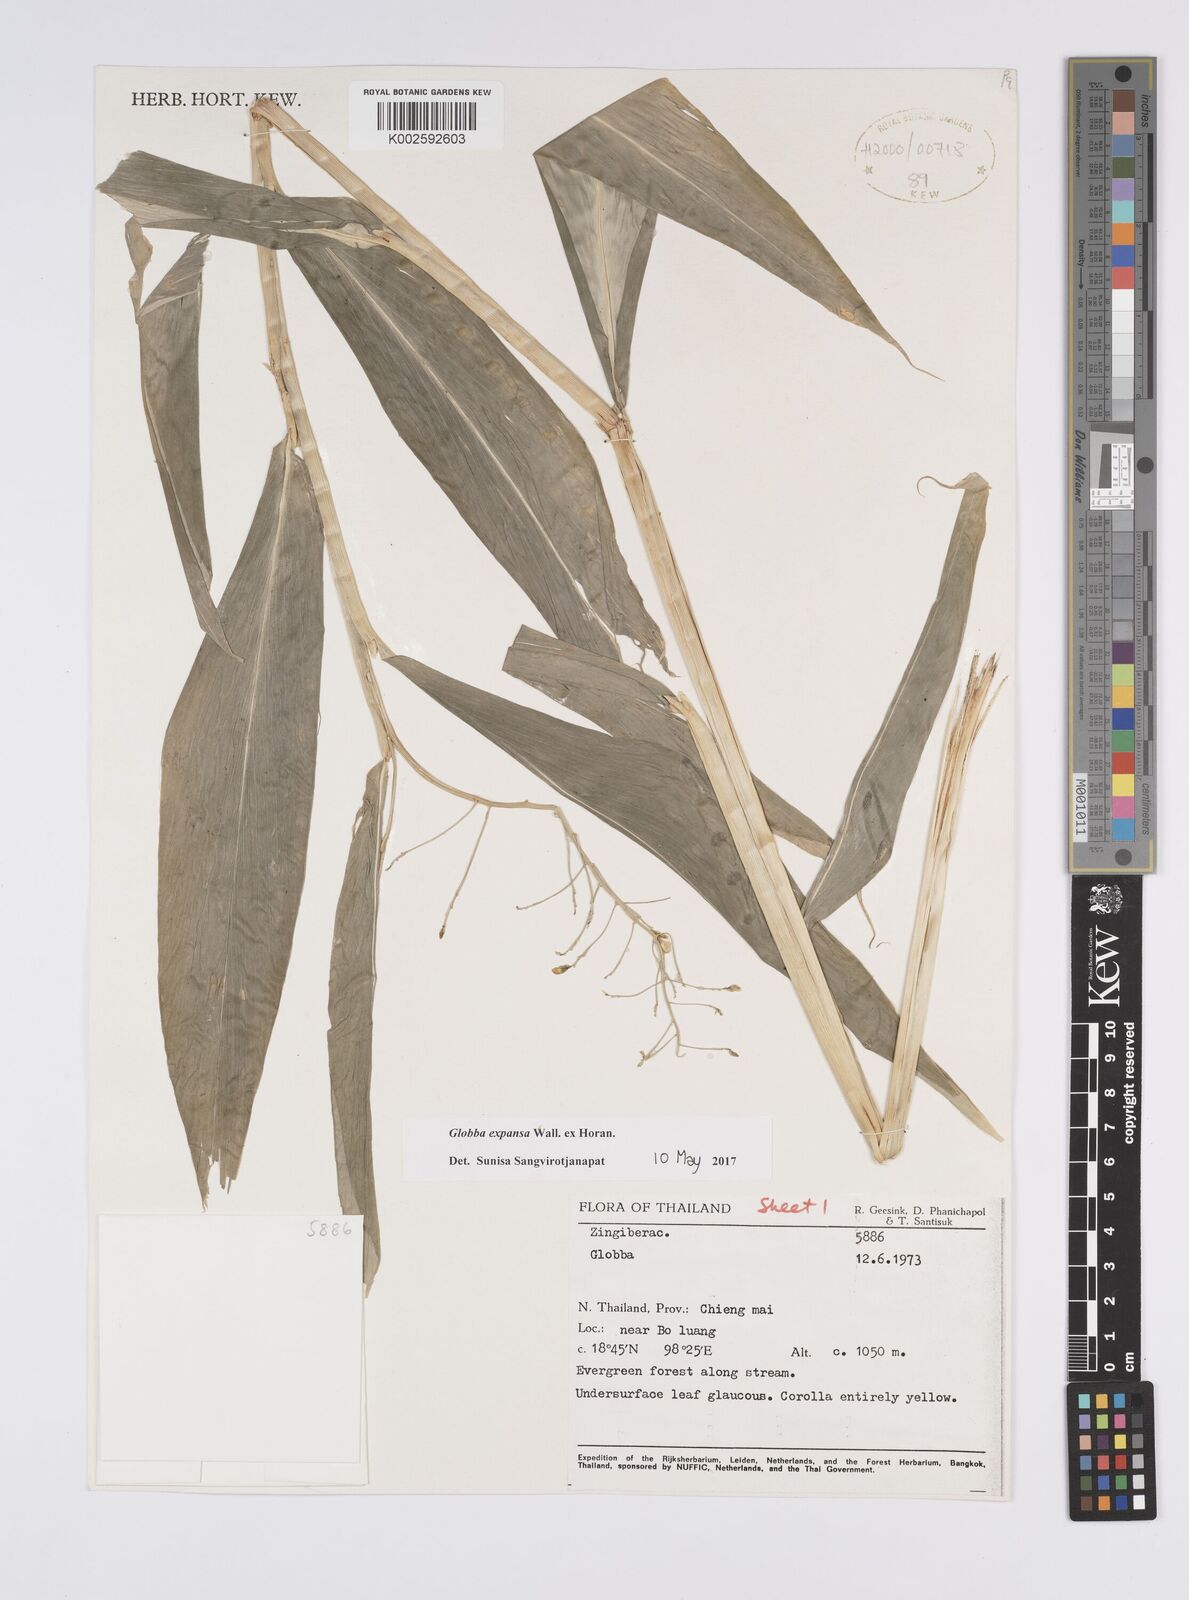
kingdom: Plantae
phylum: Tracheophyta
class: Liliopsida
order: Zingiberales
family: Zingiberaceae
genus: Globba
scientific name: Globba expansa
